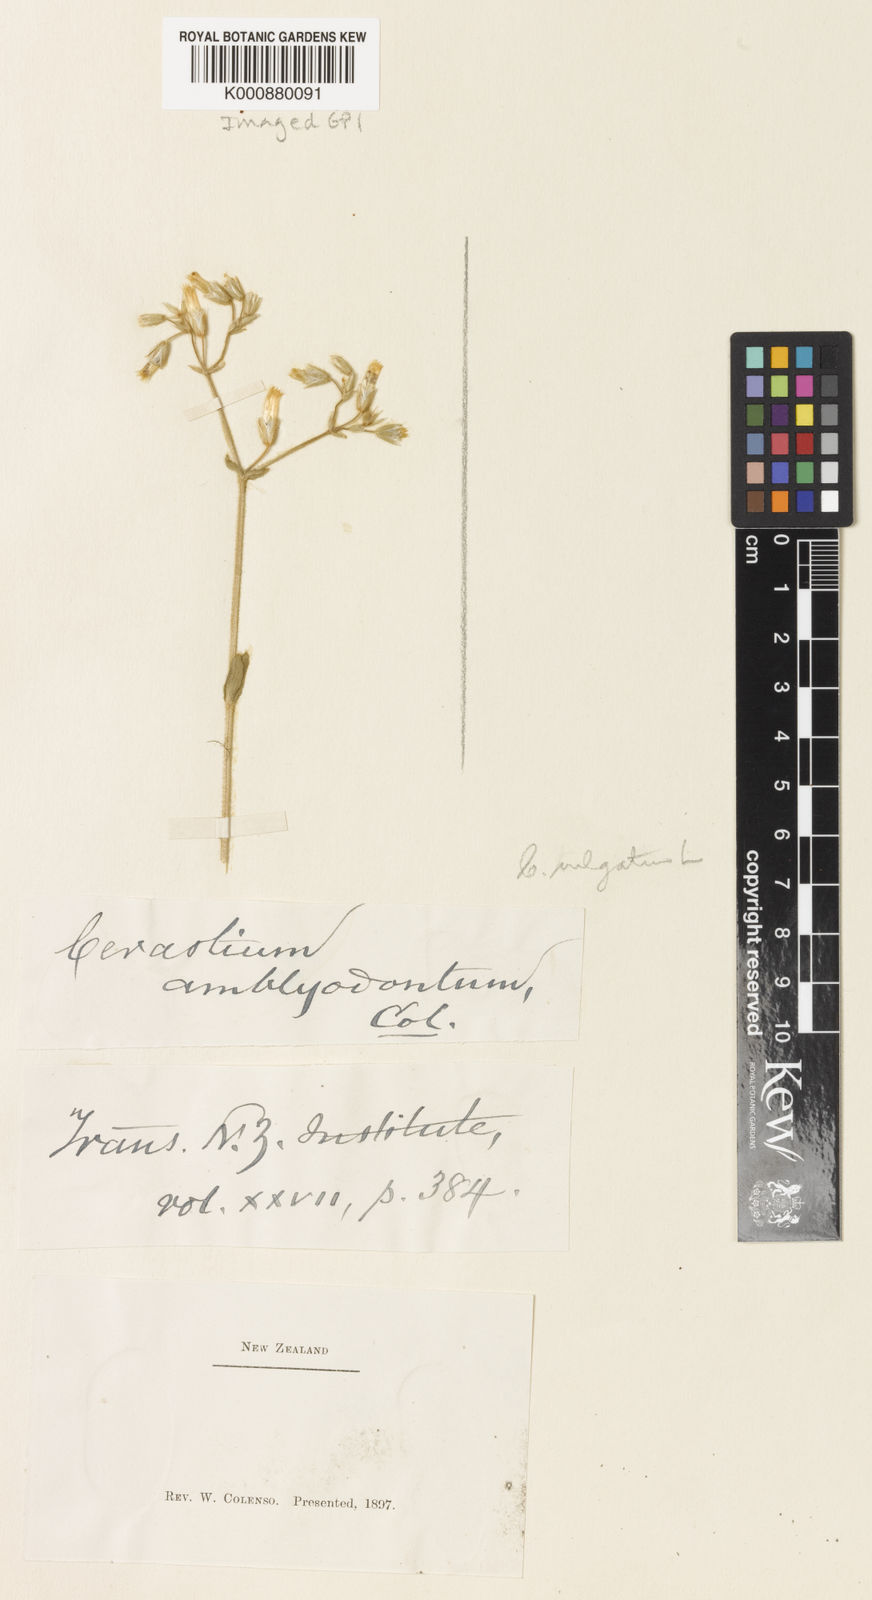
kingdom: Plantae
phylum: Tracheophyta
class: Magnoliopsida
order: Caryophyllales
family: Caryophyllaceae
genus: Cerastium
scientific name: Cerastium
